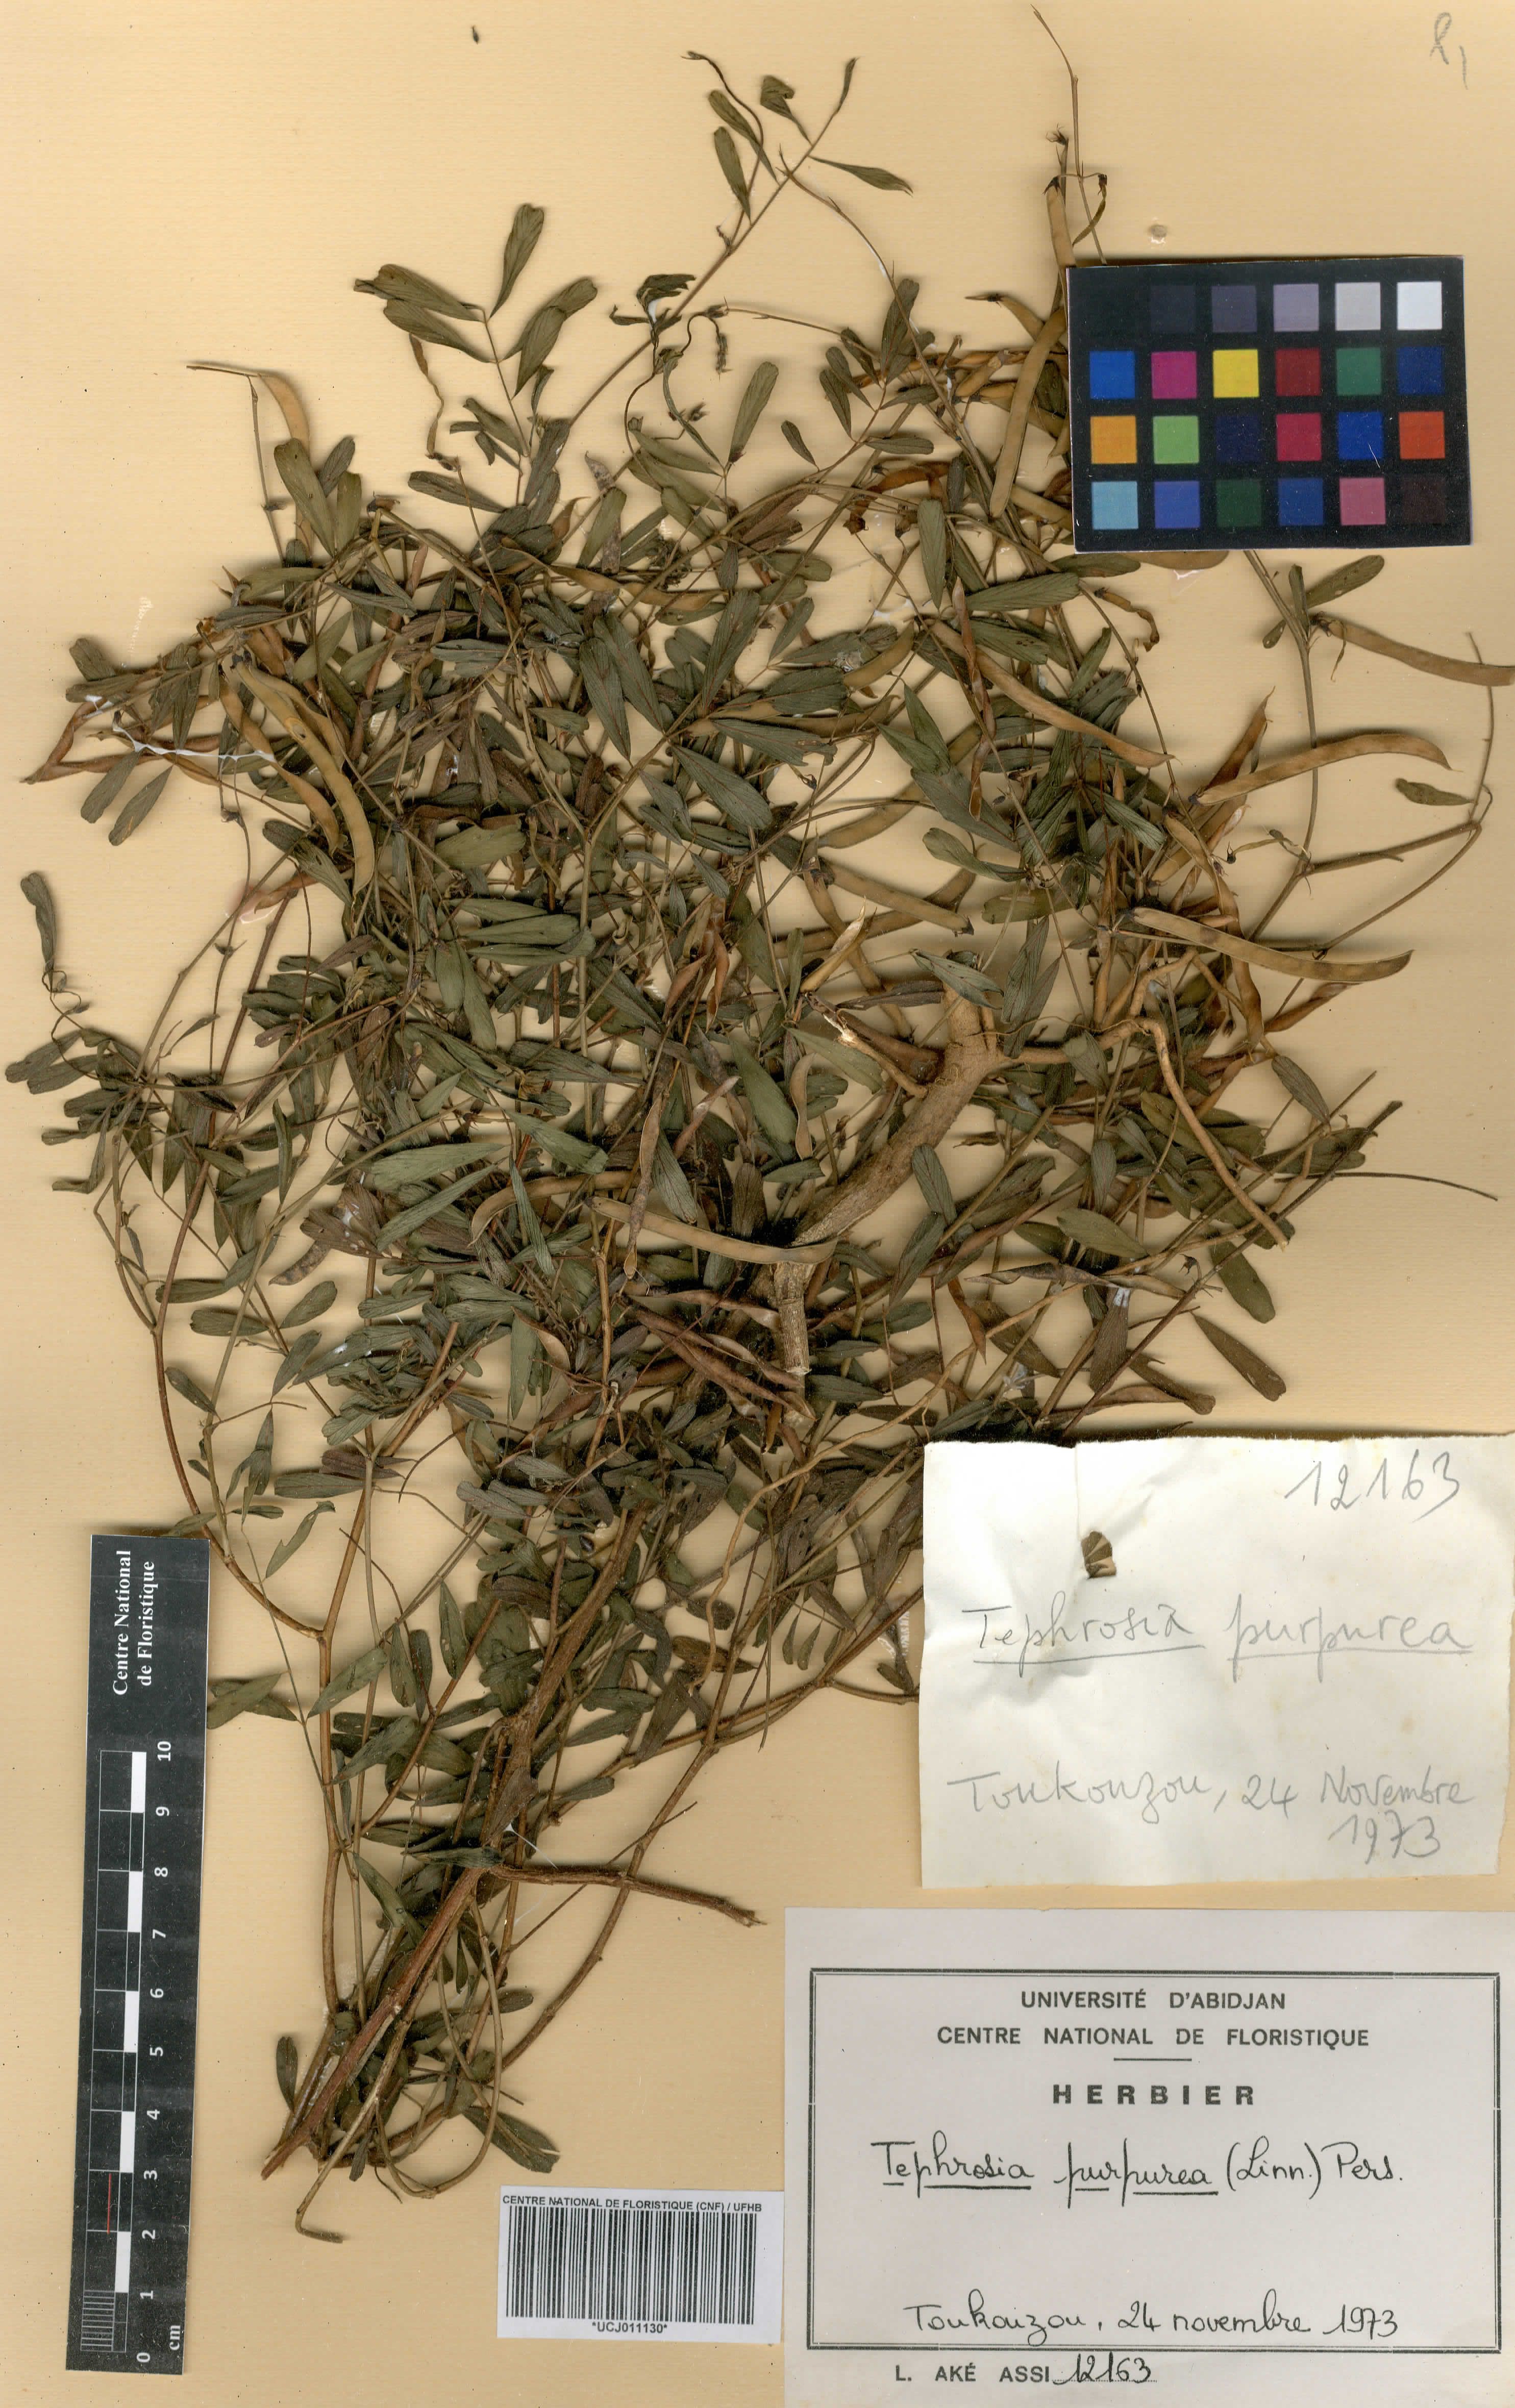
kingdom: Plantae
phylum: Tracheophyta
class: Magnoliopsida
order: Fabales
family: Fabaceae
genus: Tephrosia
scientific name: Tephrosia purpurea
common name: Fishpoison
